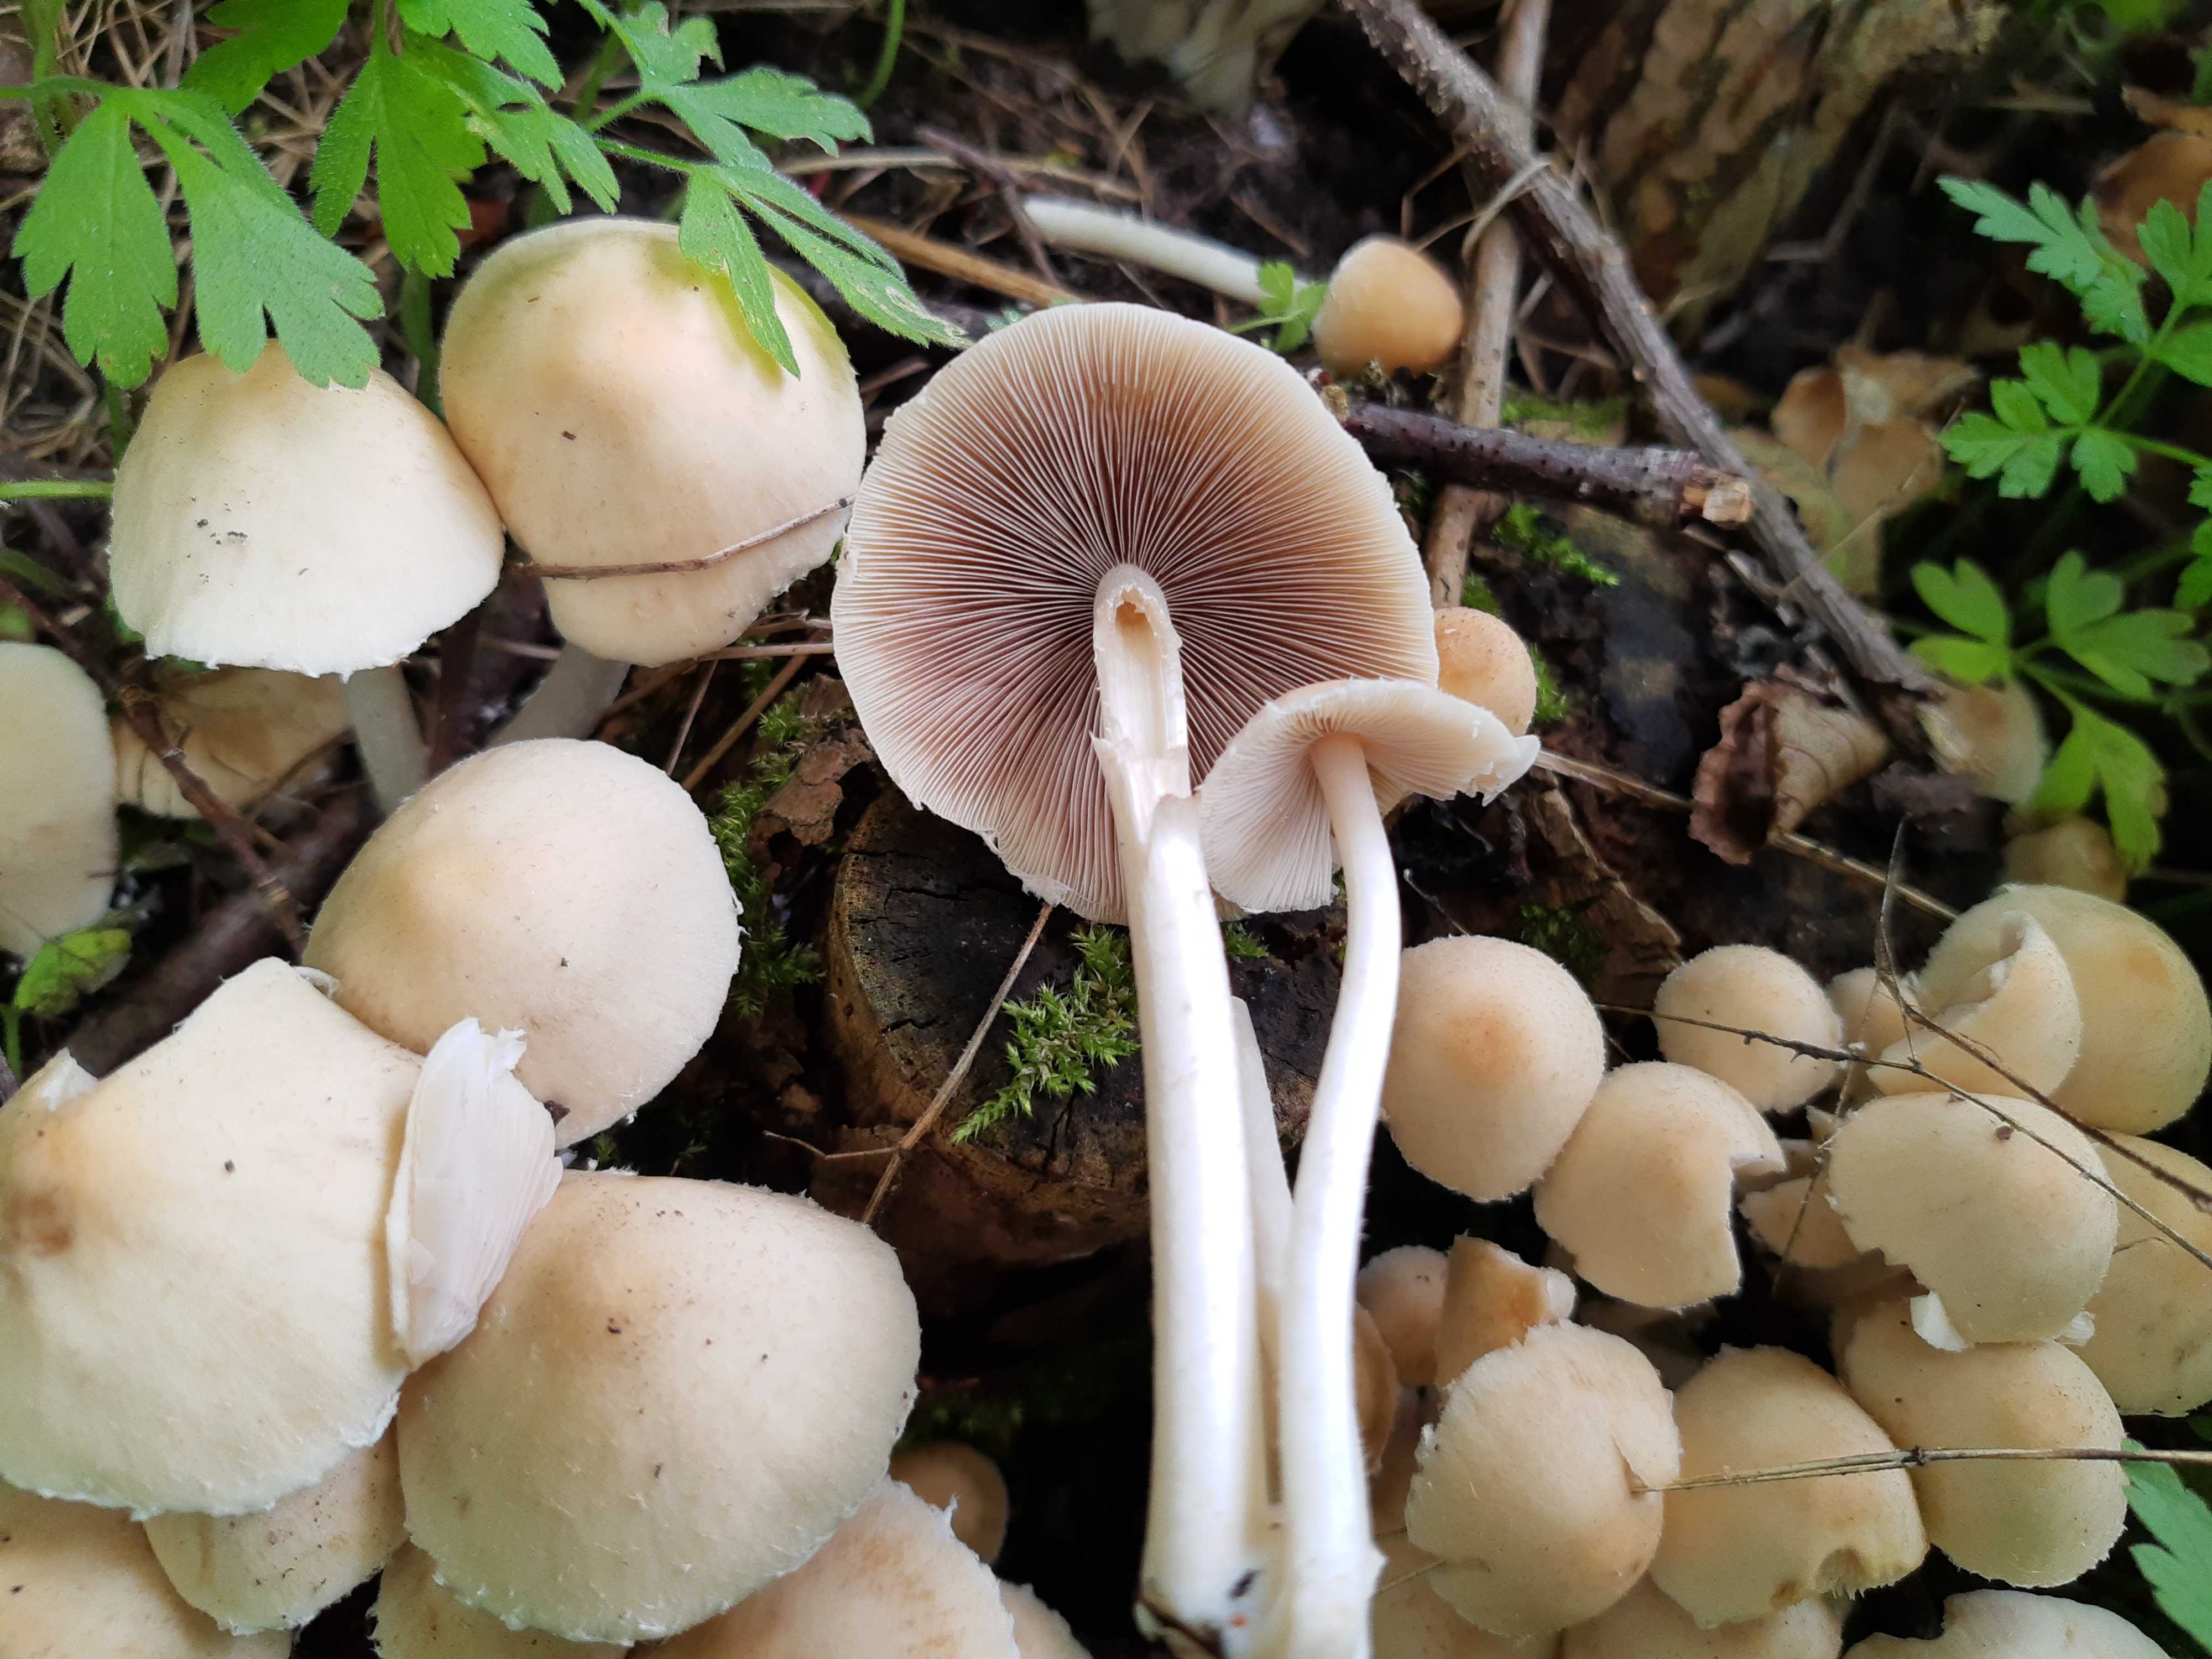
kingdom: Fungi
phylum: Basidiomycota
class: Agaricomycetes
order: Agaricales
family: Psathyrellaceae
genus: Candolleomyces
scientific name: Candolleomyces candolleanus
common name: Candolles mørkhat
